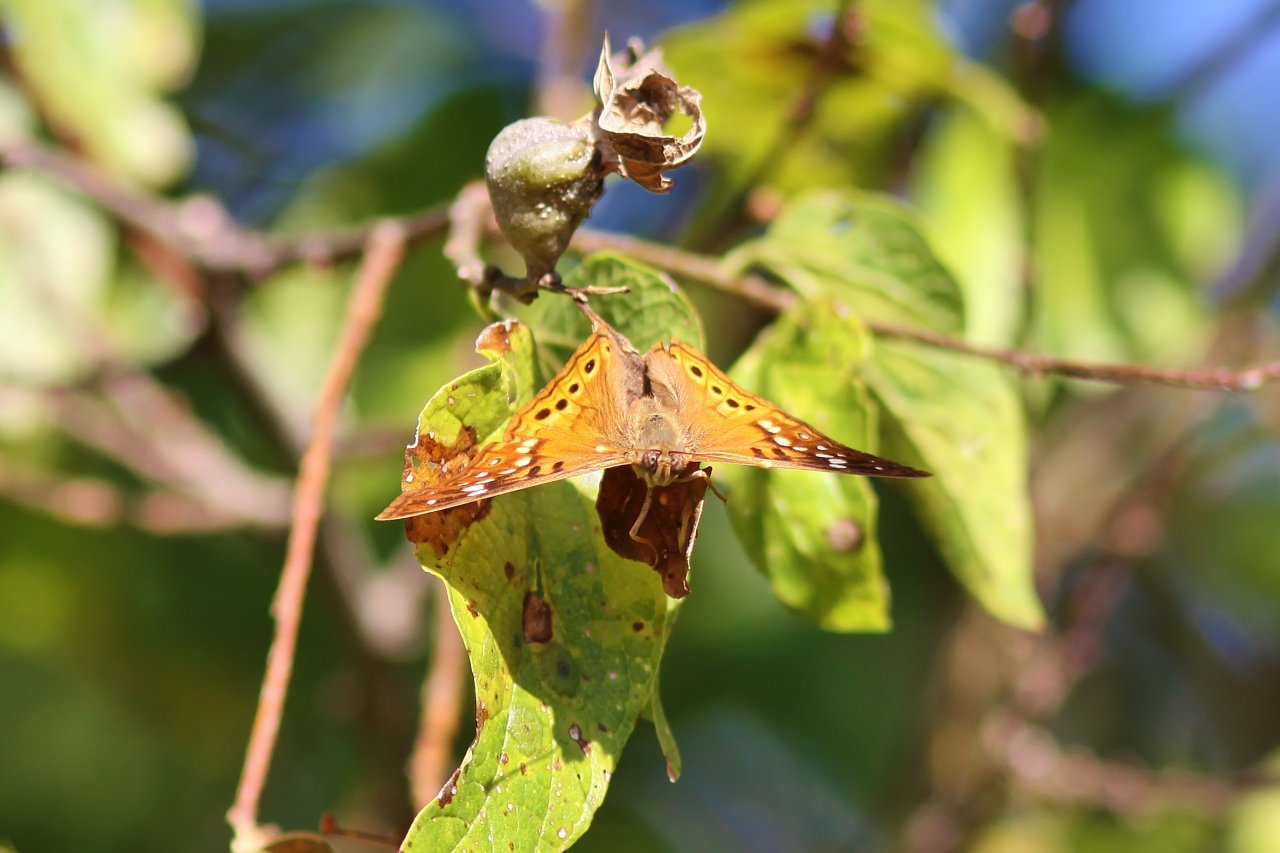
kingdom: Animalia
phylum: Arthropoda
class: Insecta
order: Lepidoptera
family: Nymphalidae
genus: Asterocampa
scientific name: Asterocampa clyton
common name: Tawny Emperor
